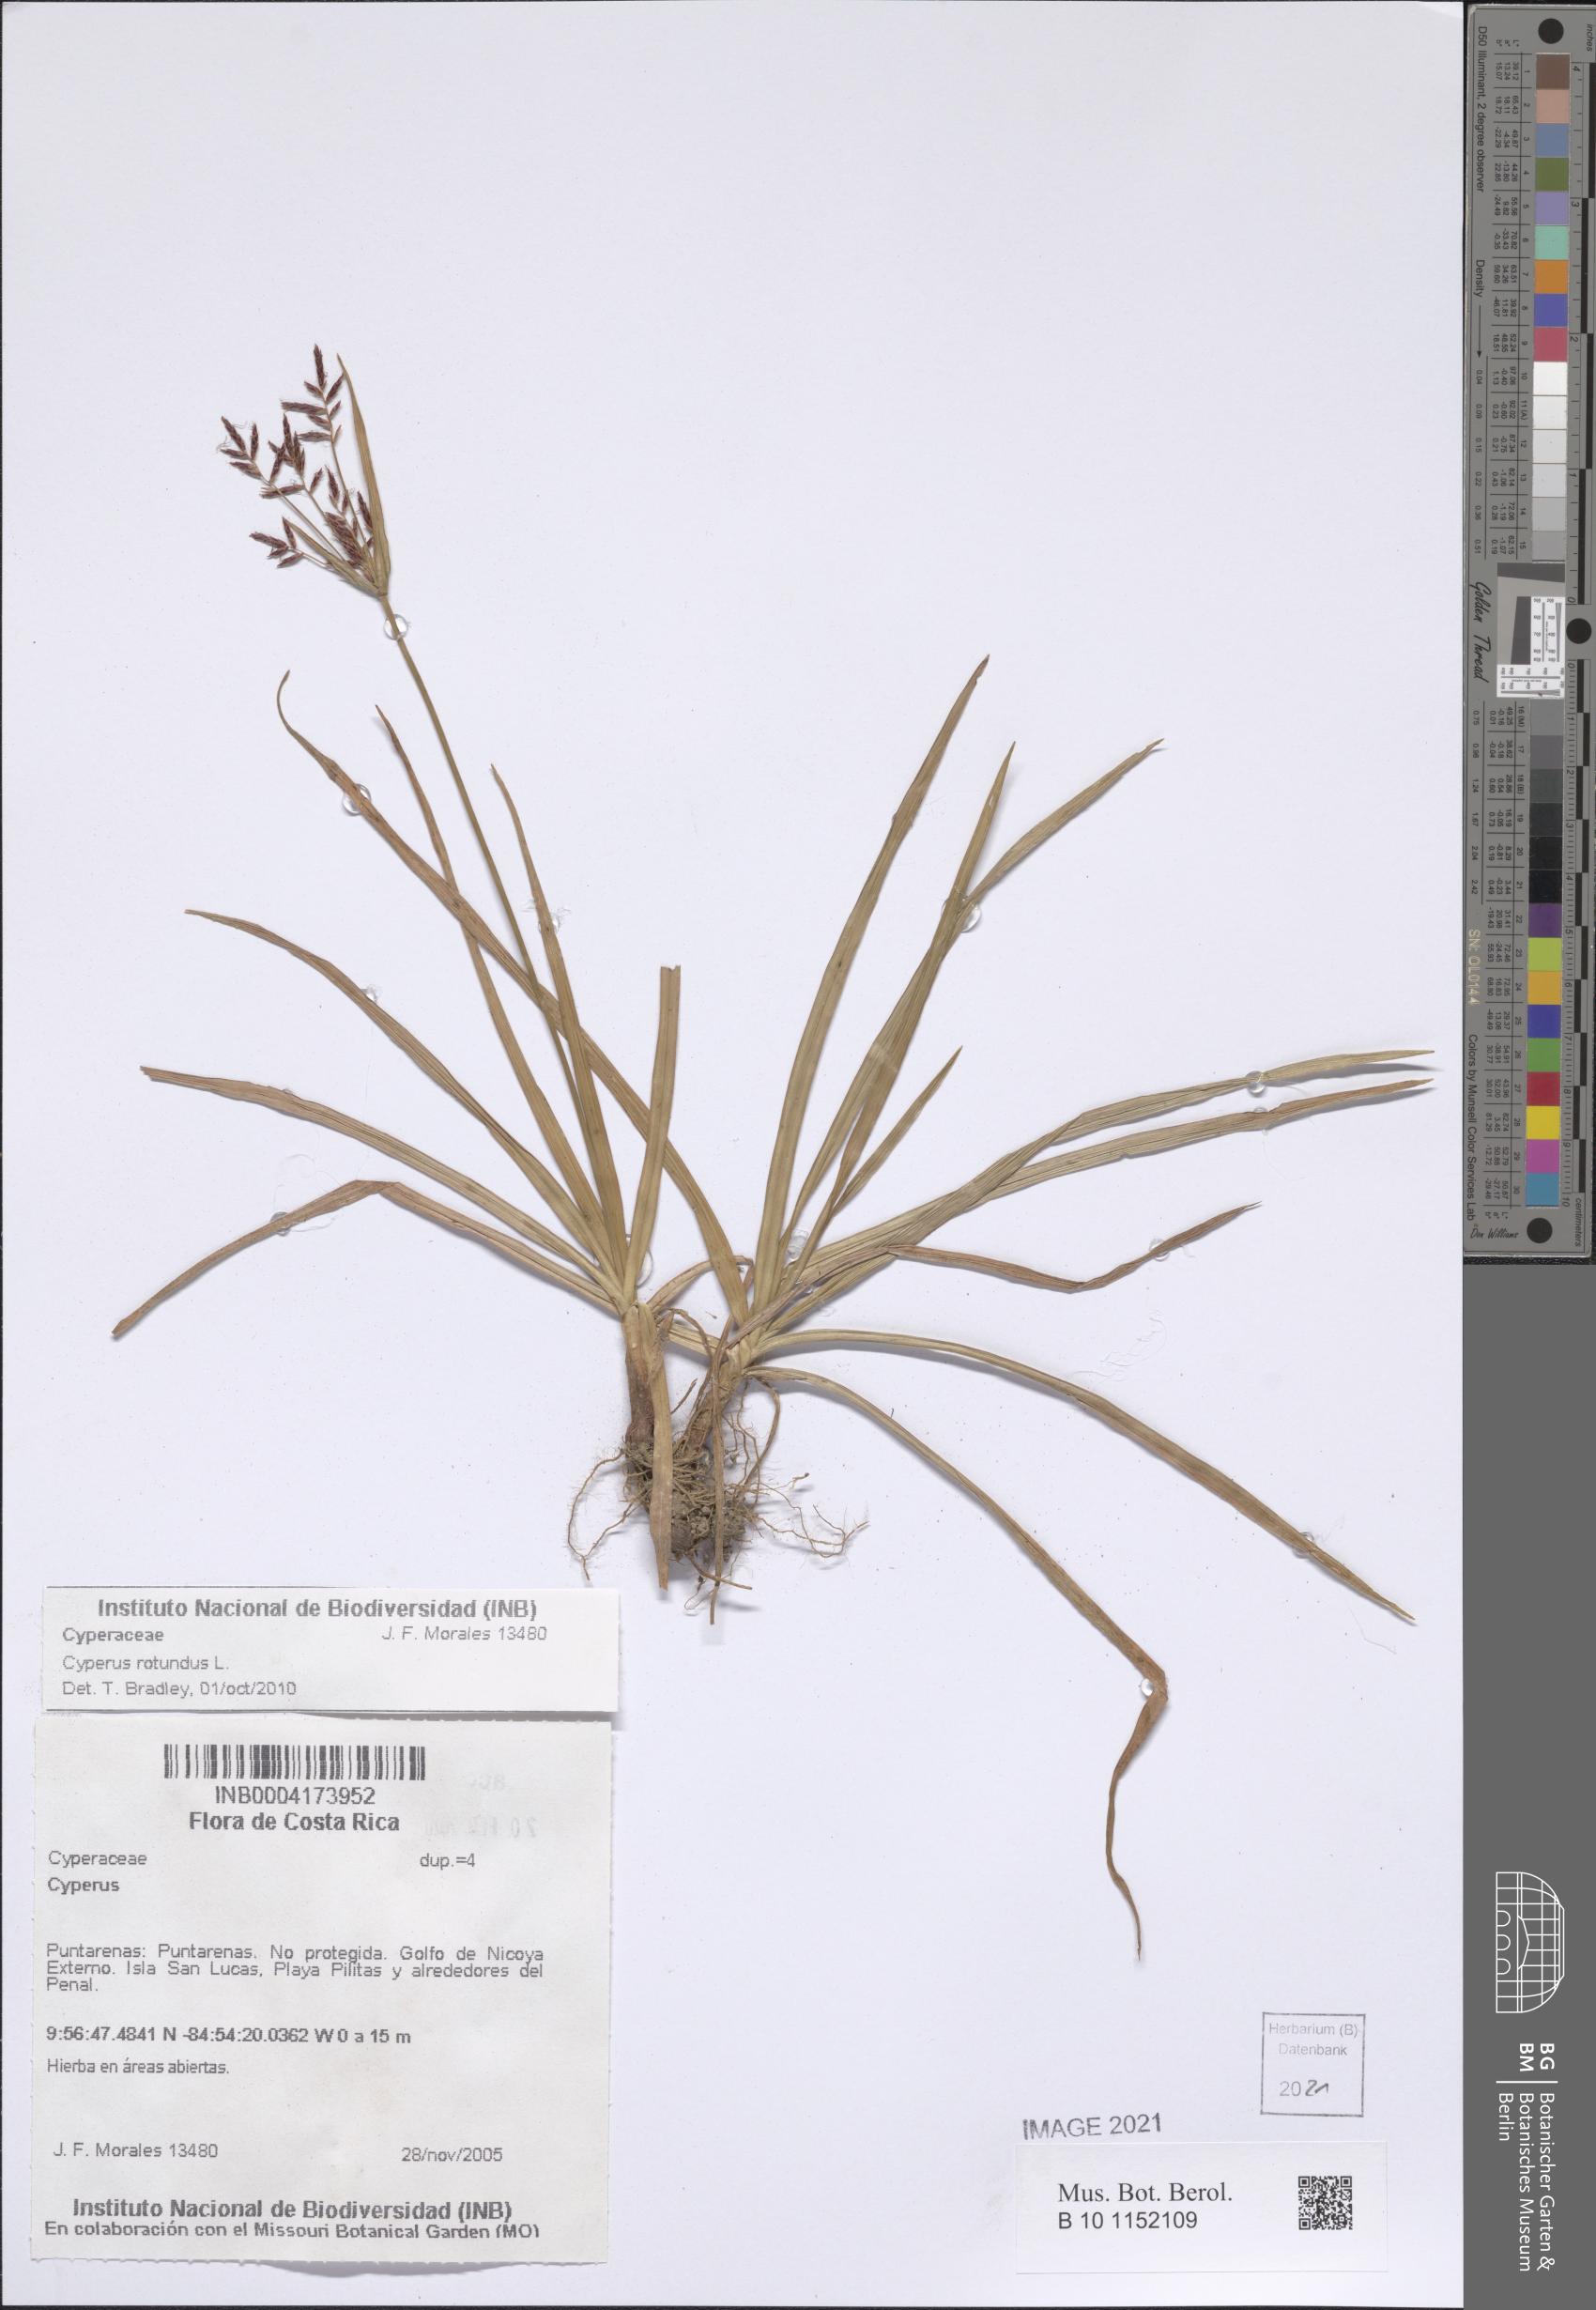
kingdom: Plantae
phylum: Tracheophyta
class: Liliopsida
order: Poales
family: Cyperaceae
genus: Cyperus
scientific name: Cyperus rotundus
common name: Nutgrass
